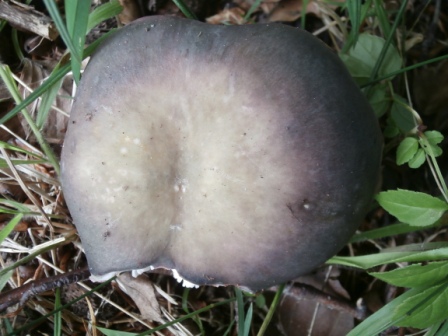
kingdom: Fungi
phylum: Basidiomycota
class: Agaricomycetes
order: Russulales
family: Russulaceae
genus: Russula
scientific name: Russula grisea
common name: grålig skørhat
